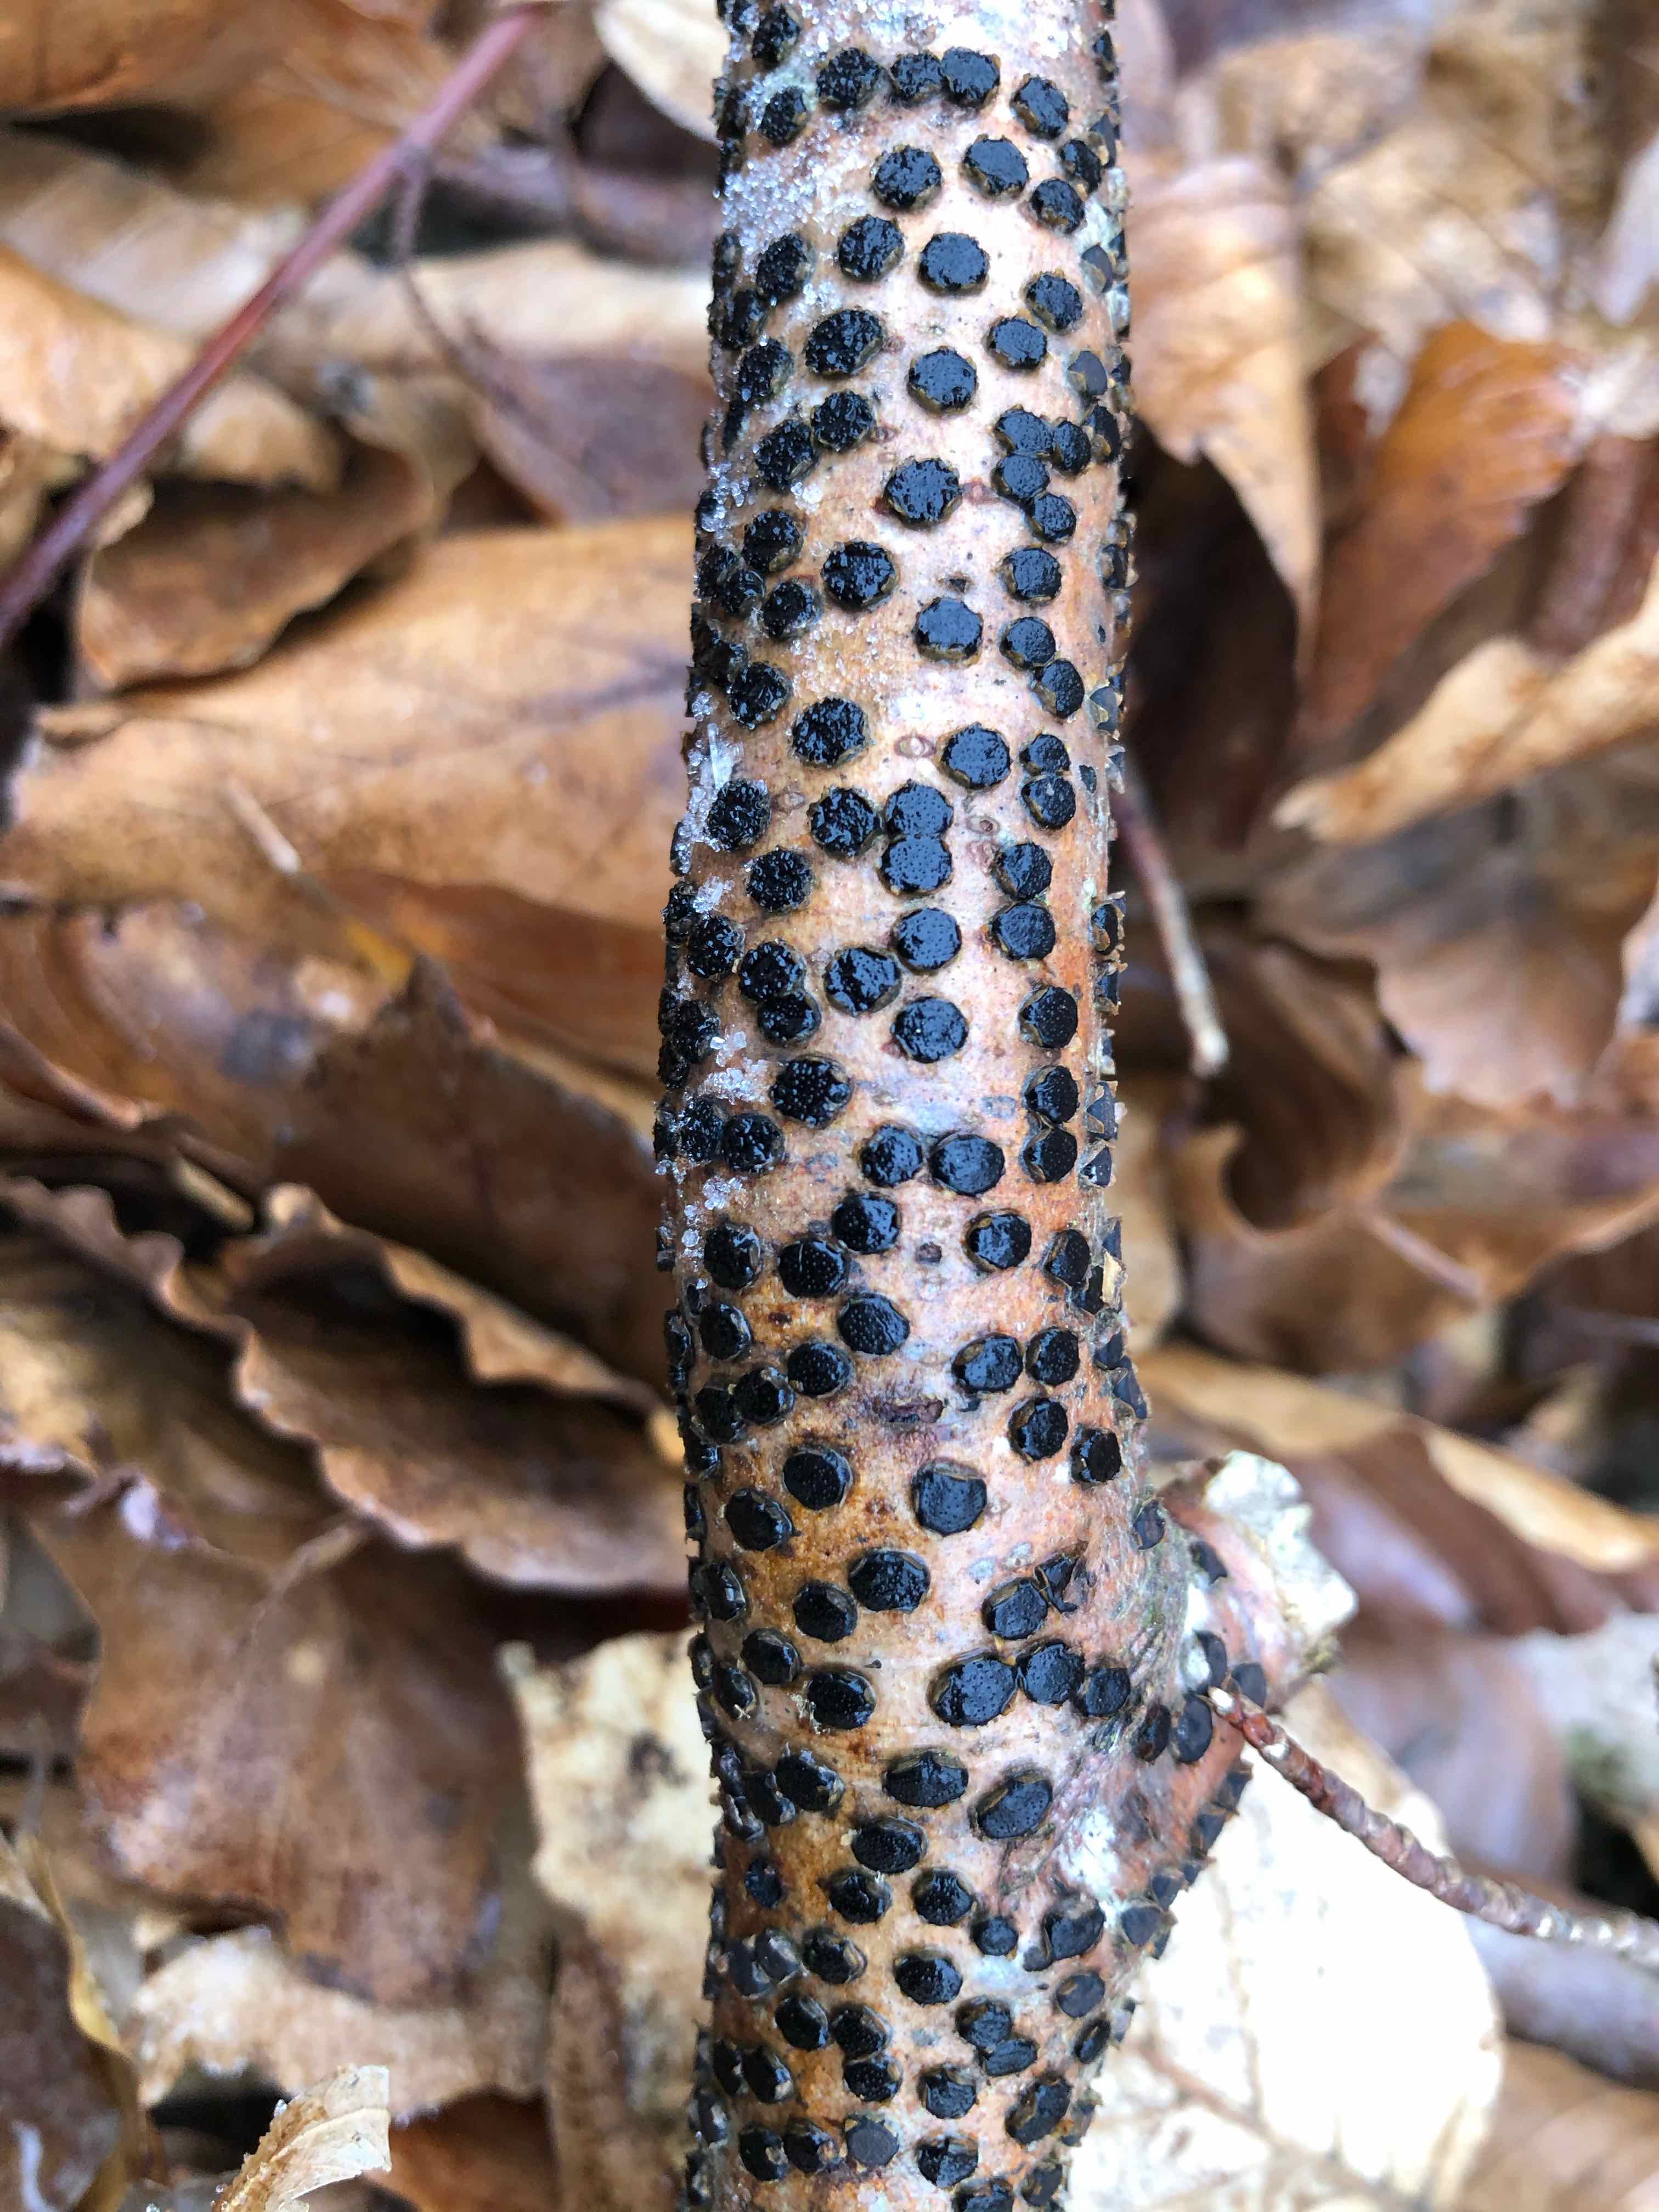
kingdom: Fungi
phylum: Ascomycota
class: Sordariomycetes
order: Xylariales
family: Diatrypaceae
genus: Diatrype
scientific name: Diatrype disciformis
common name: kant-kulskorpe
